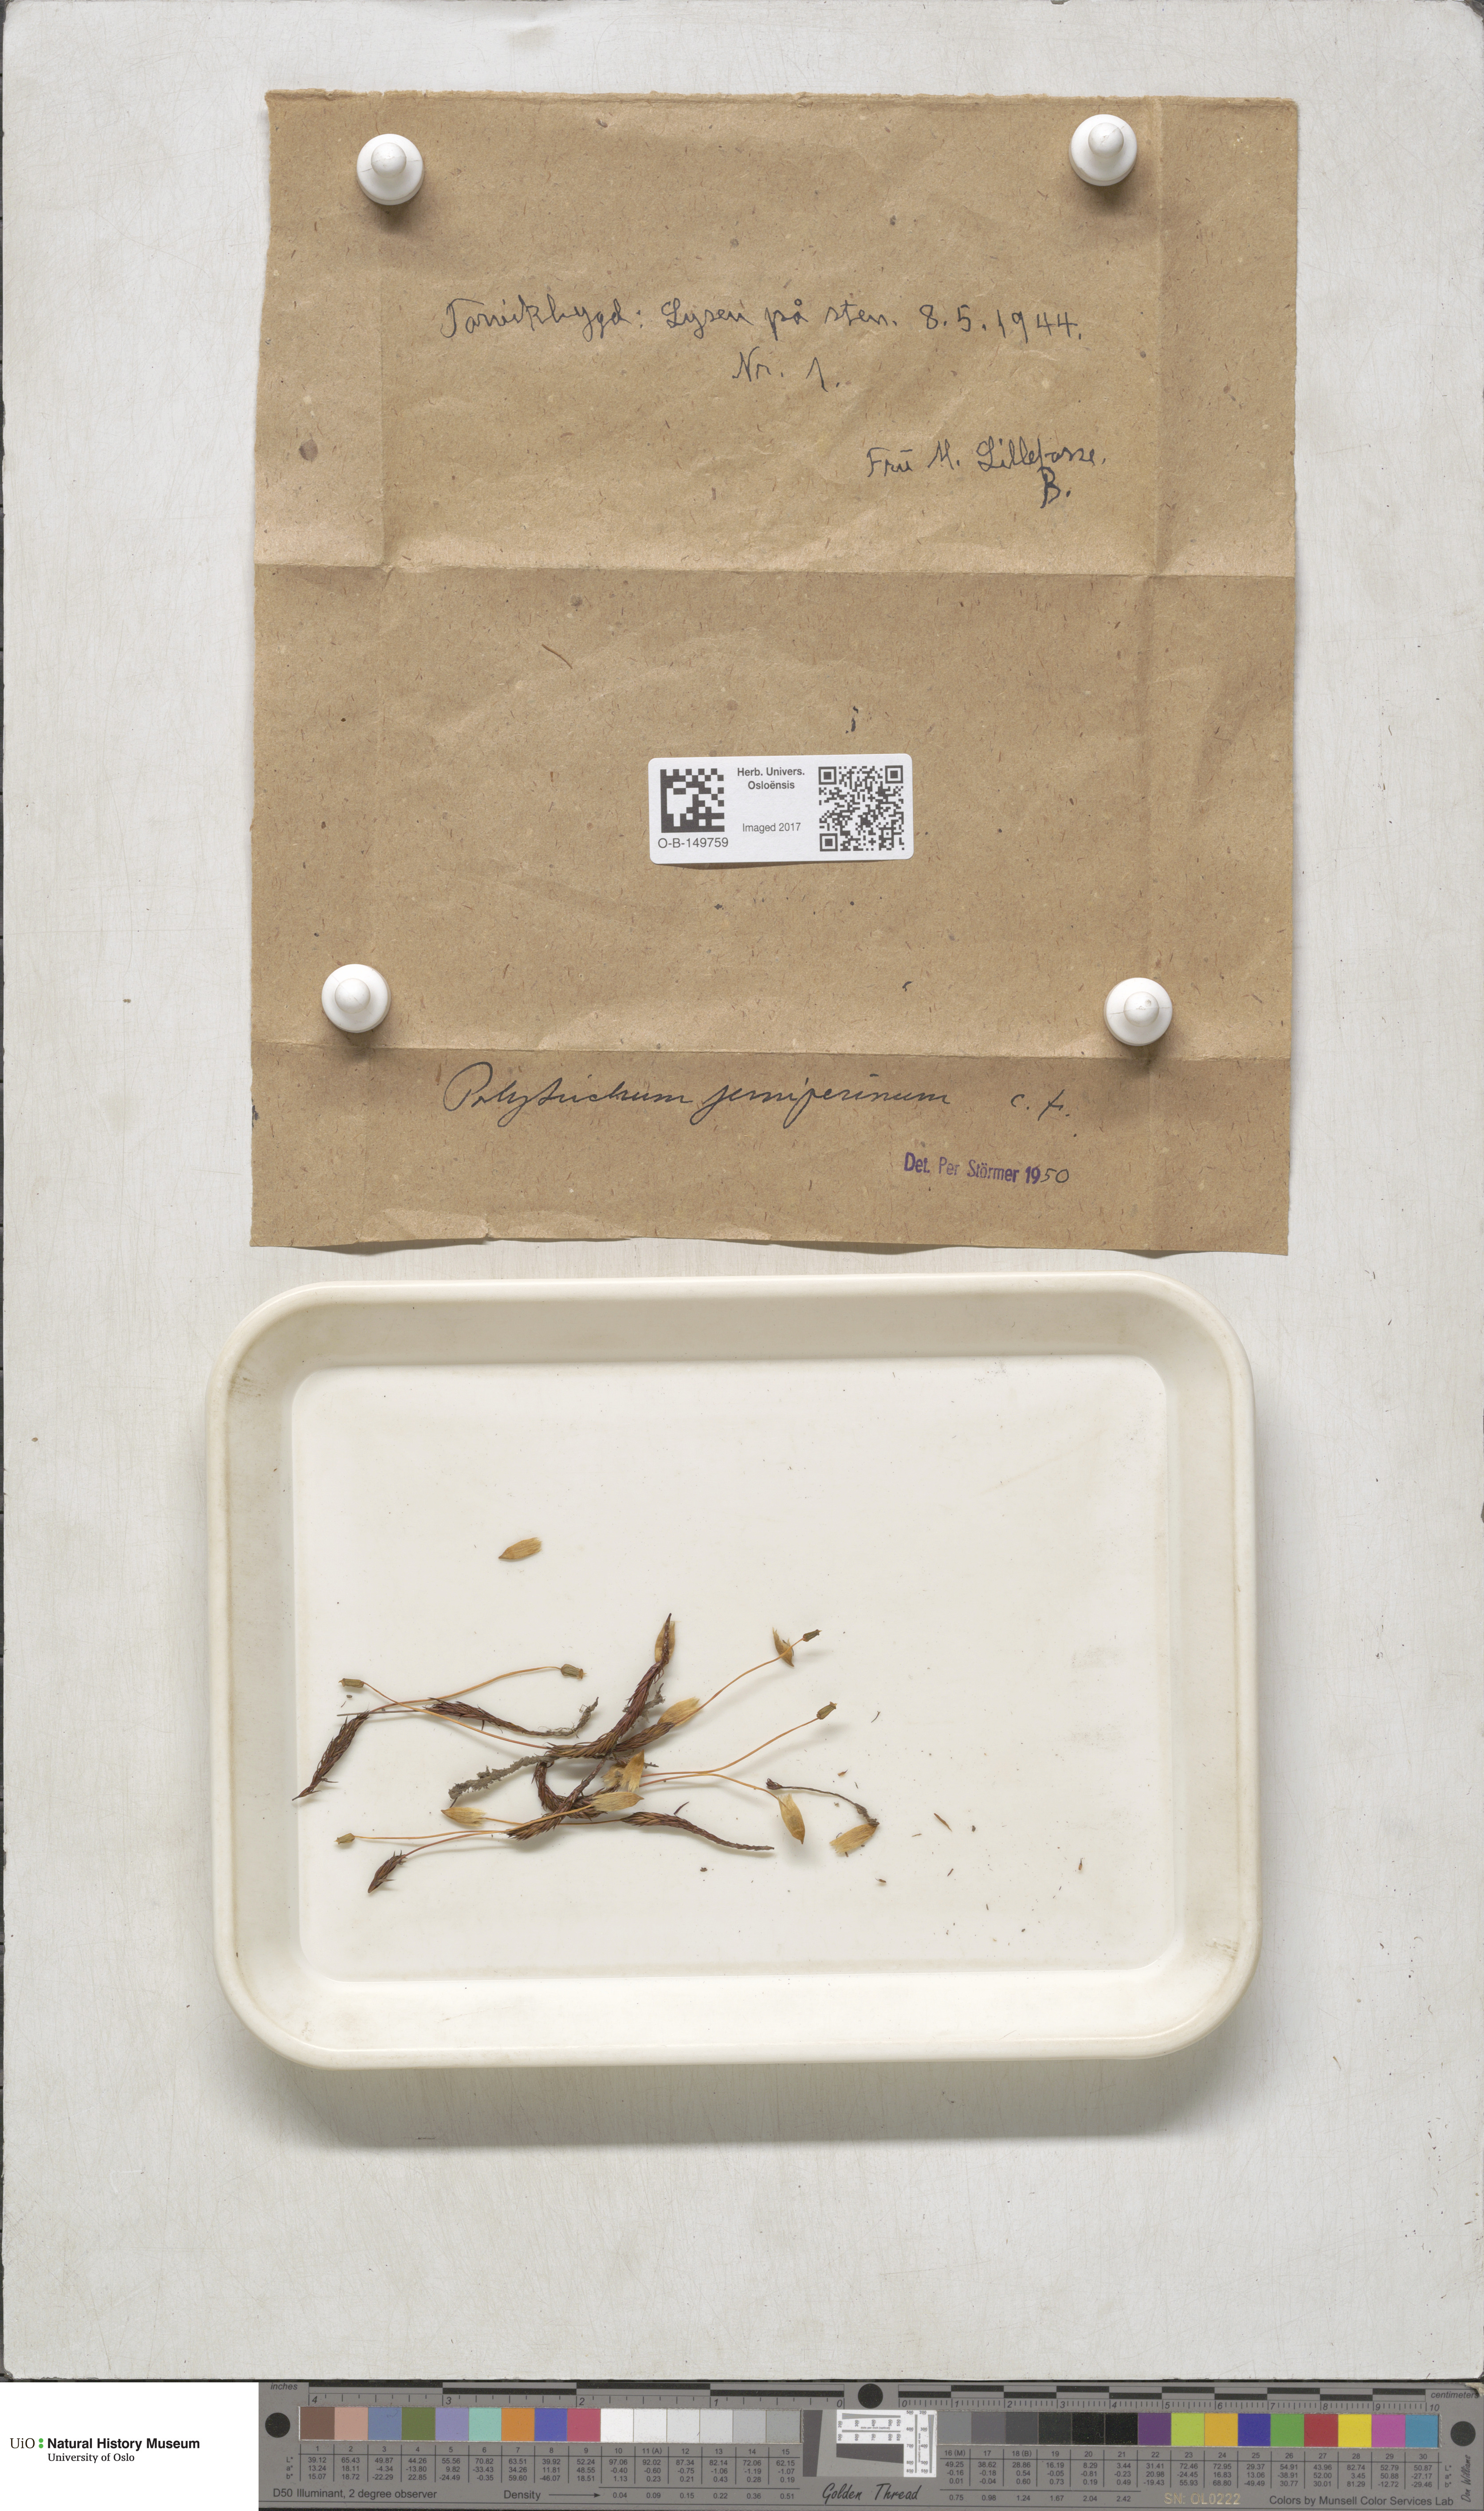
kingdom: Plantae
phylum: Bryophyta
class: Polytrichopsida
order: Polytrichales
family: Polytrichaceae
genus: Polytrichum
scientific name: Polytrichum juniperinum
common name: Juniper haircap moss
